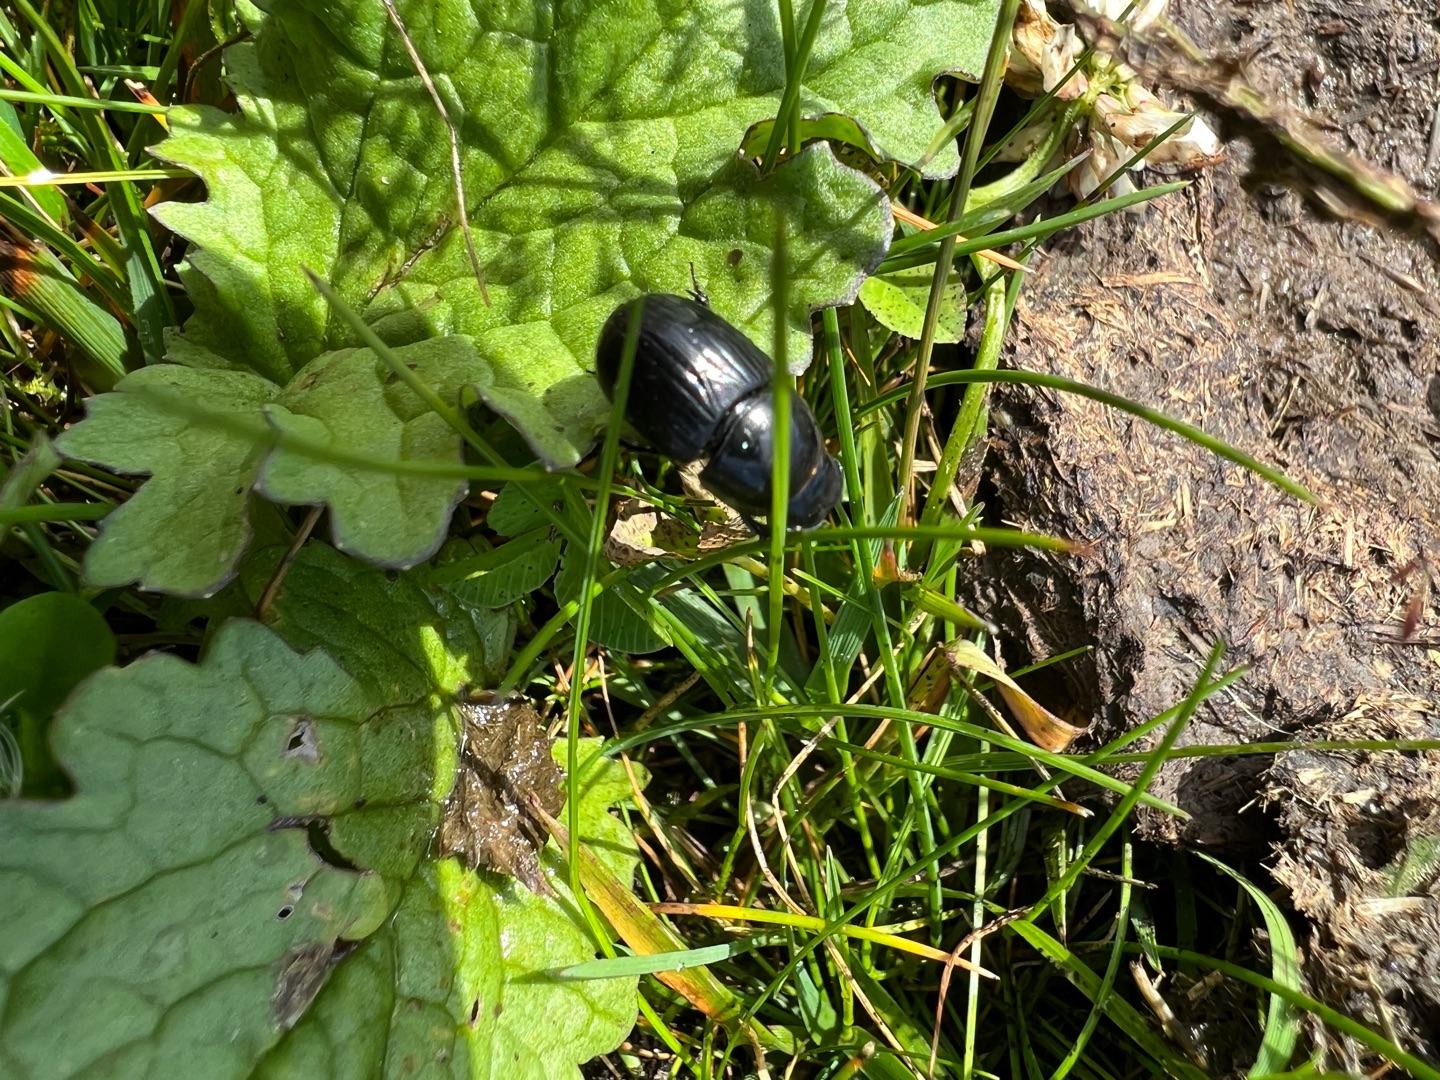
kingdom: Animalia
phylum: Arthropoda
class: Insecta
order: Coleoptera
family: Scarabaeidae
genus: Teuchestes
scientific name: Teuchestes fossor
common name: Stor møgbille
